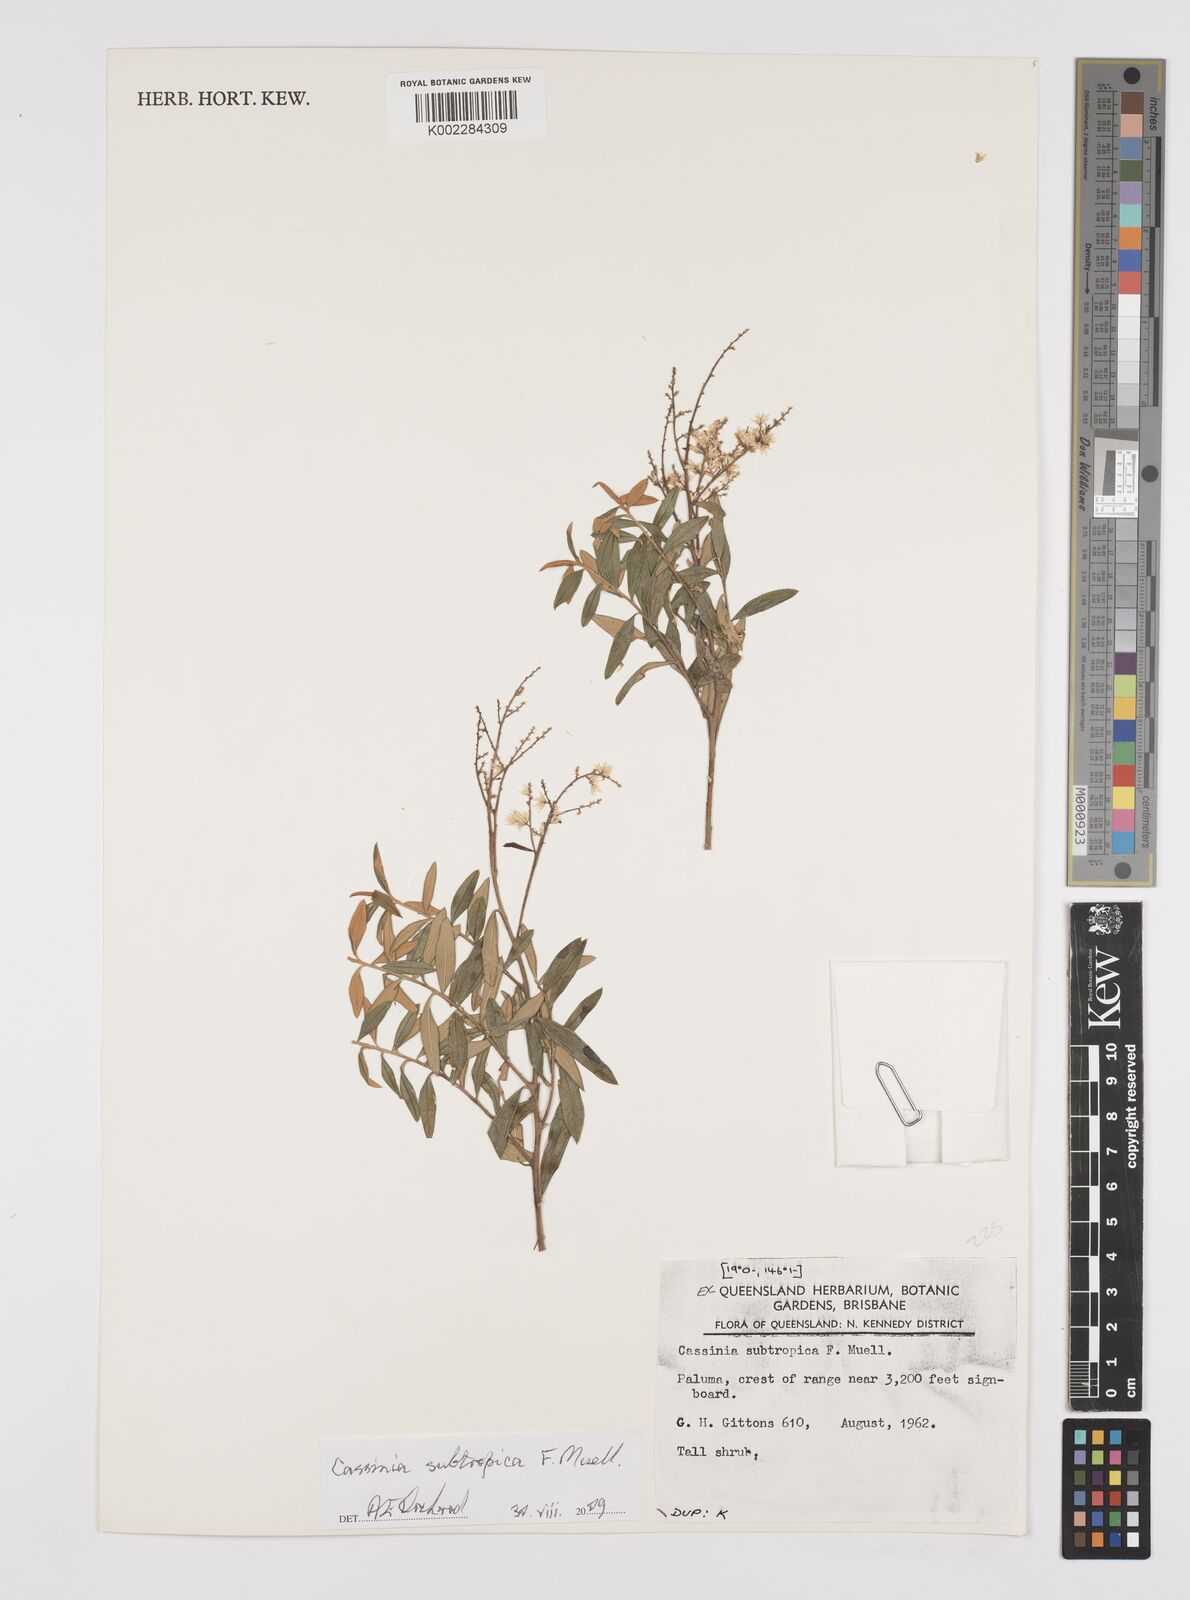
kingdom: Plantae
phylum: Tracheophyta
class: Magnoliopsida
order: Asterales
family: Asteraceae
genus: Cassinia
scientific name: Cassinia subtropica
